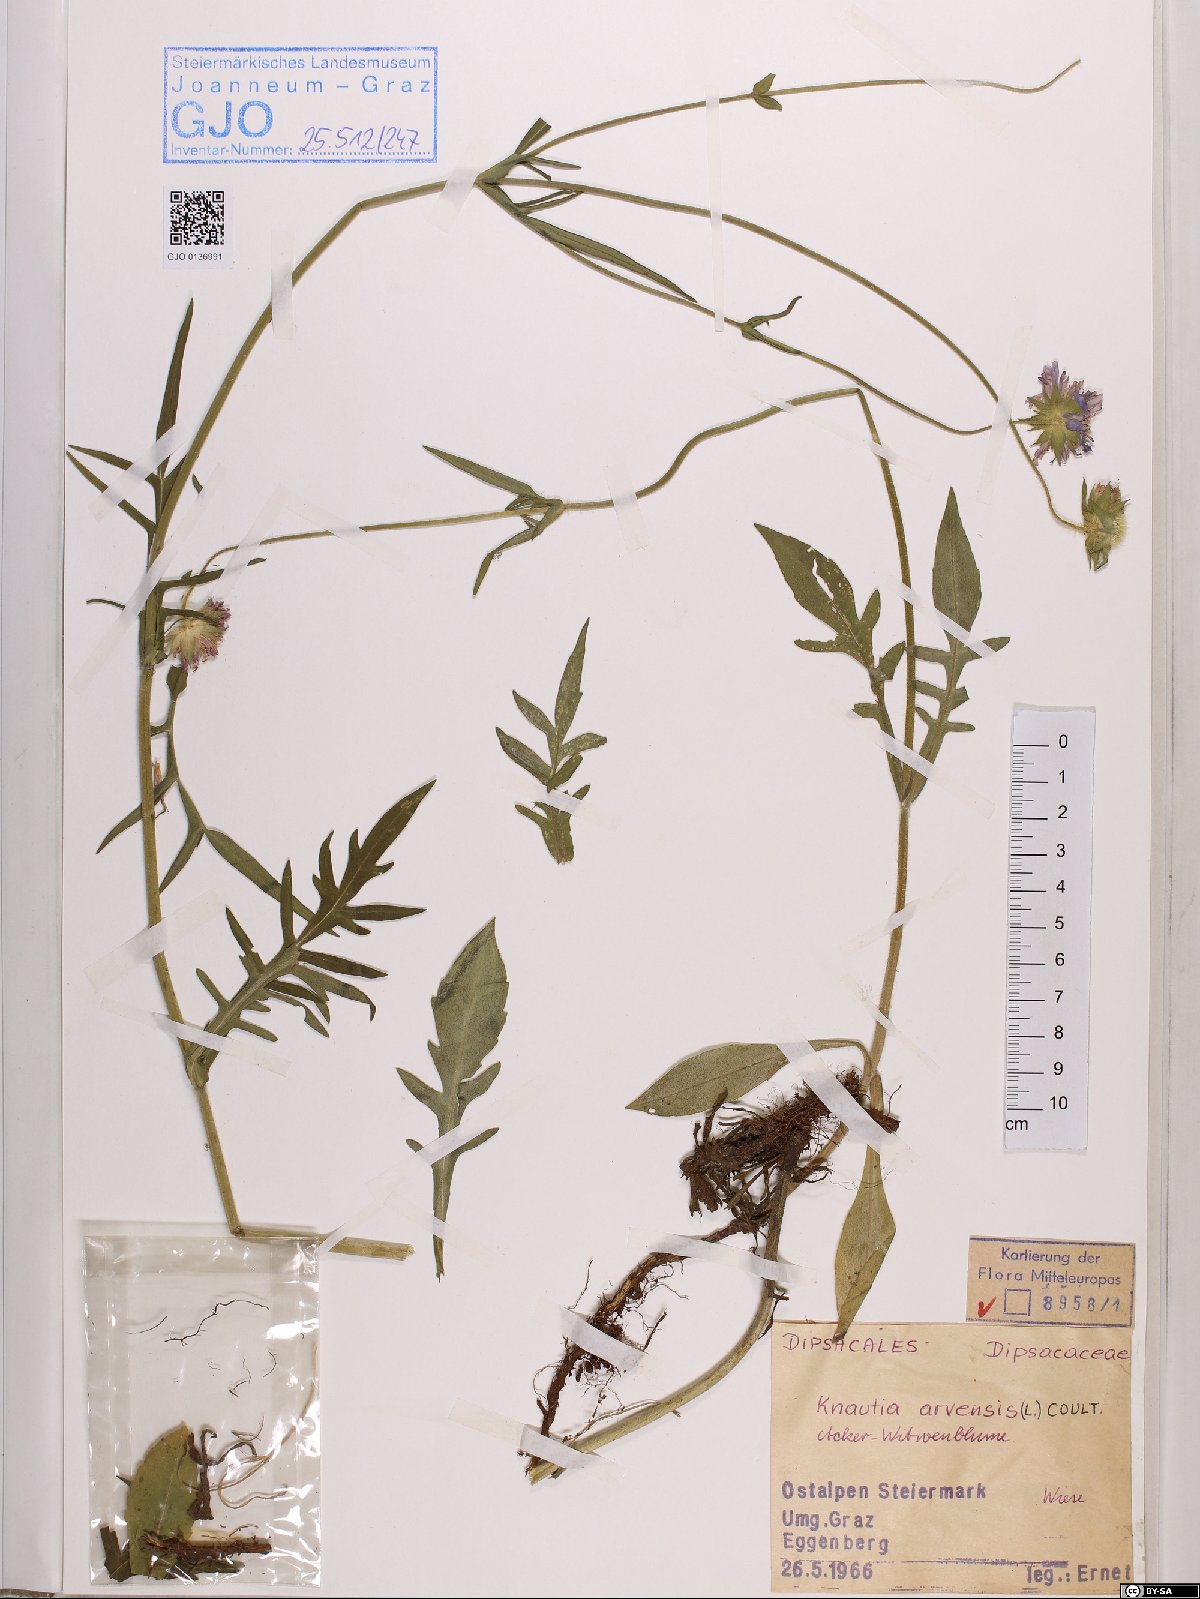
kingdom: Plantae
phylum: Tracheophyta
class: Magnoliopsida
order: Dipsacales
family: Caprifoliaceae
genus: Knautia
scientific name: Knautia arvensis
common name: Field scabiosa
